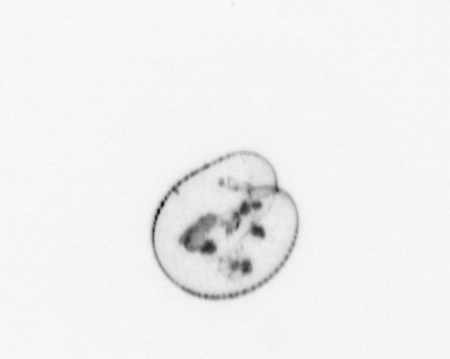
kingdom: Chromista
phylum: Myzozoa
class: Dinophyceae
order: Noctilucales
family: Noctilucaceae
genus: Noctiluca
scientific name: Noctiluca scintillans
